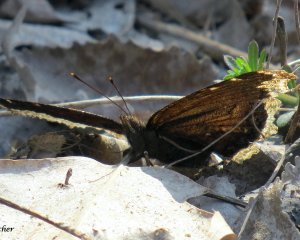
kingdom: Animalia
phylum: Arthropoda
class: Insecta
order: Lepidoptera
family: Nymphalidae
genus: Nymphalis
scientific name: Nymphalis antiopa
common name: Mourning Cloak
